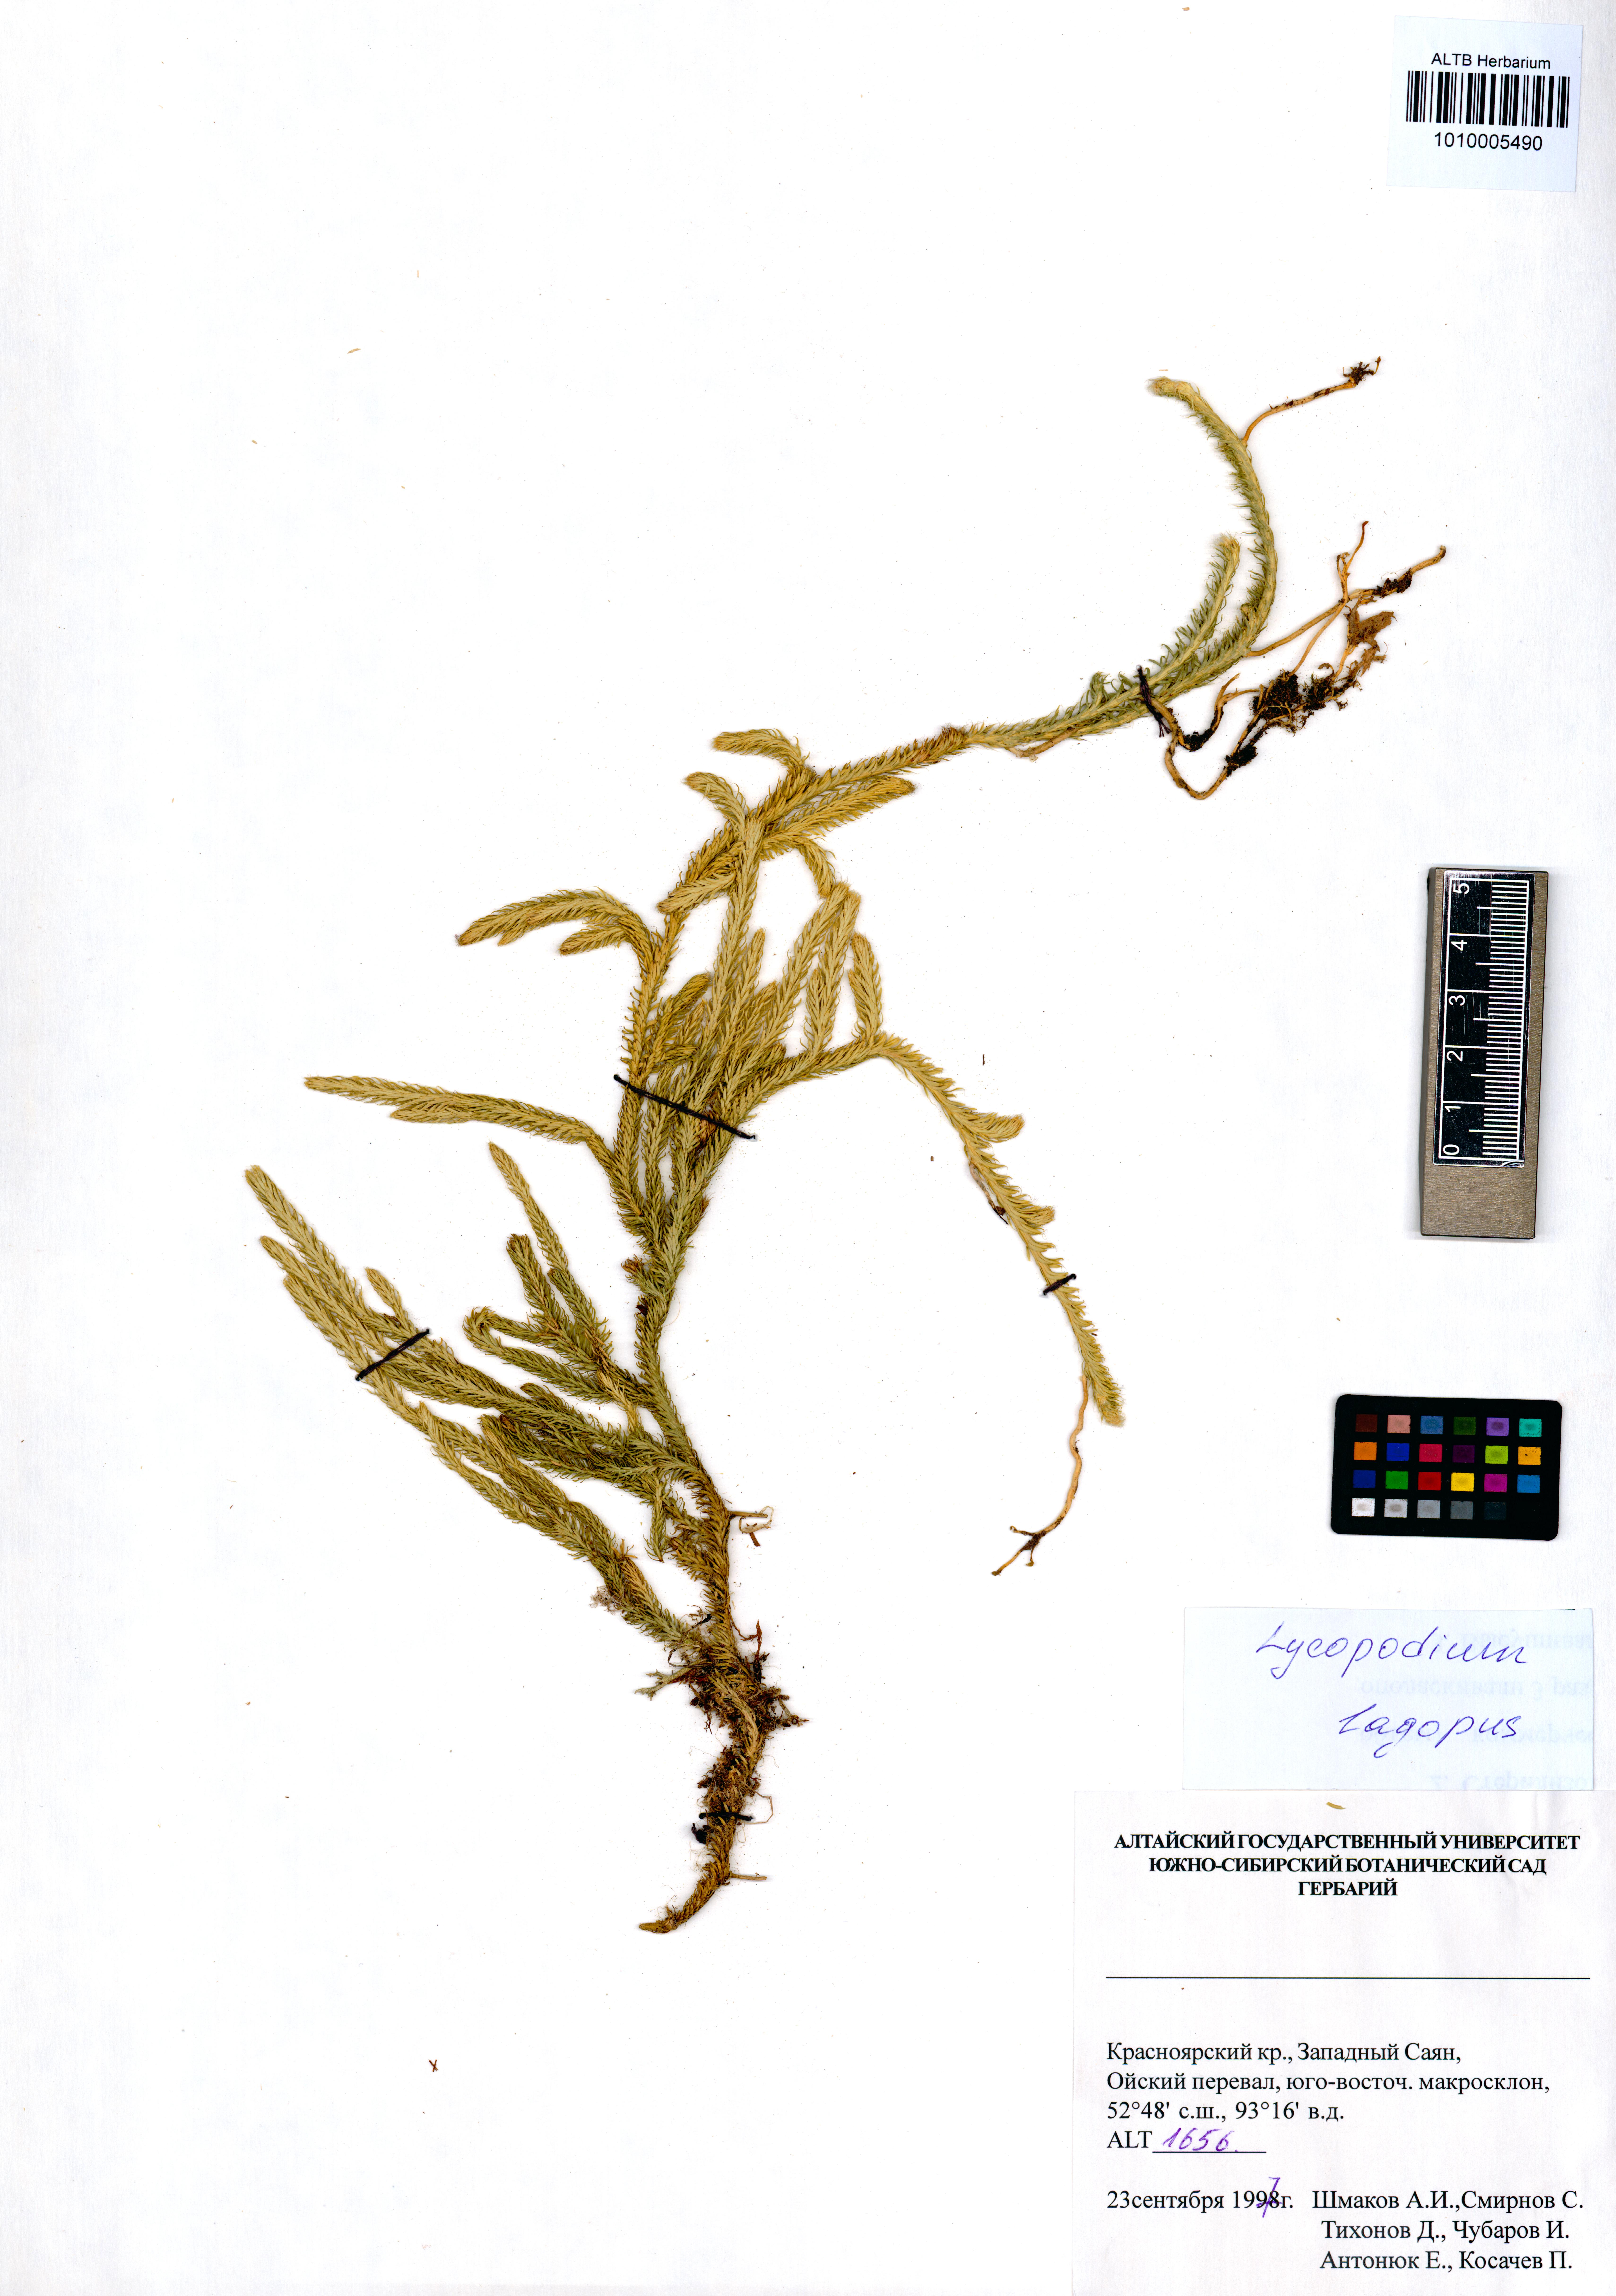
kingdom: Plantae
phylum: Tracheophyta
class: Lycopodiopsida
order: Lycopodiales
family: Lycopodiaceae
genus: Lycopodium
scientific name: Lycopodium lagopus
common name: One-cone clubmoss
